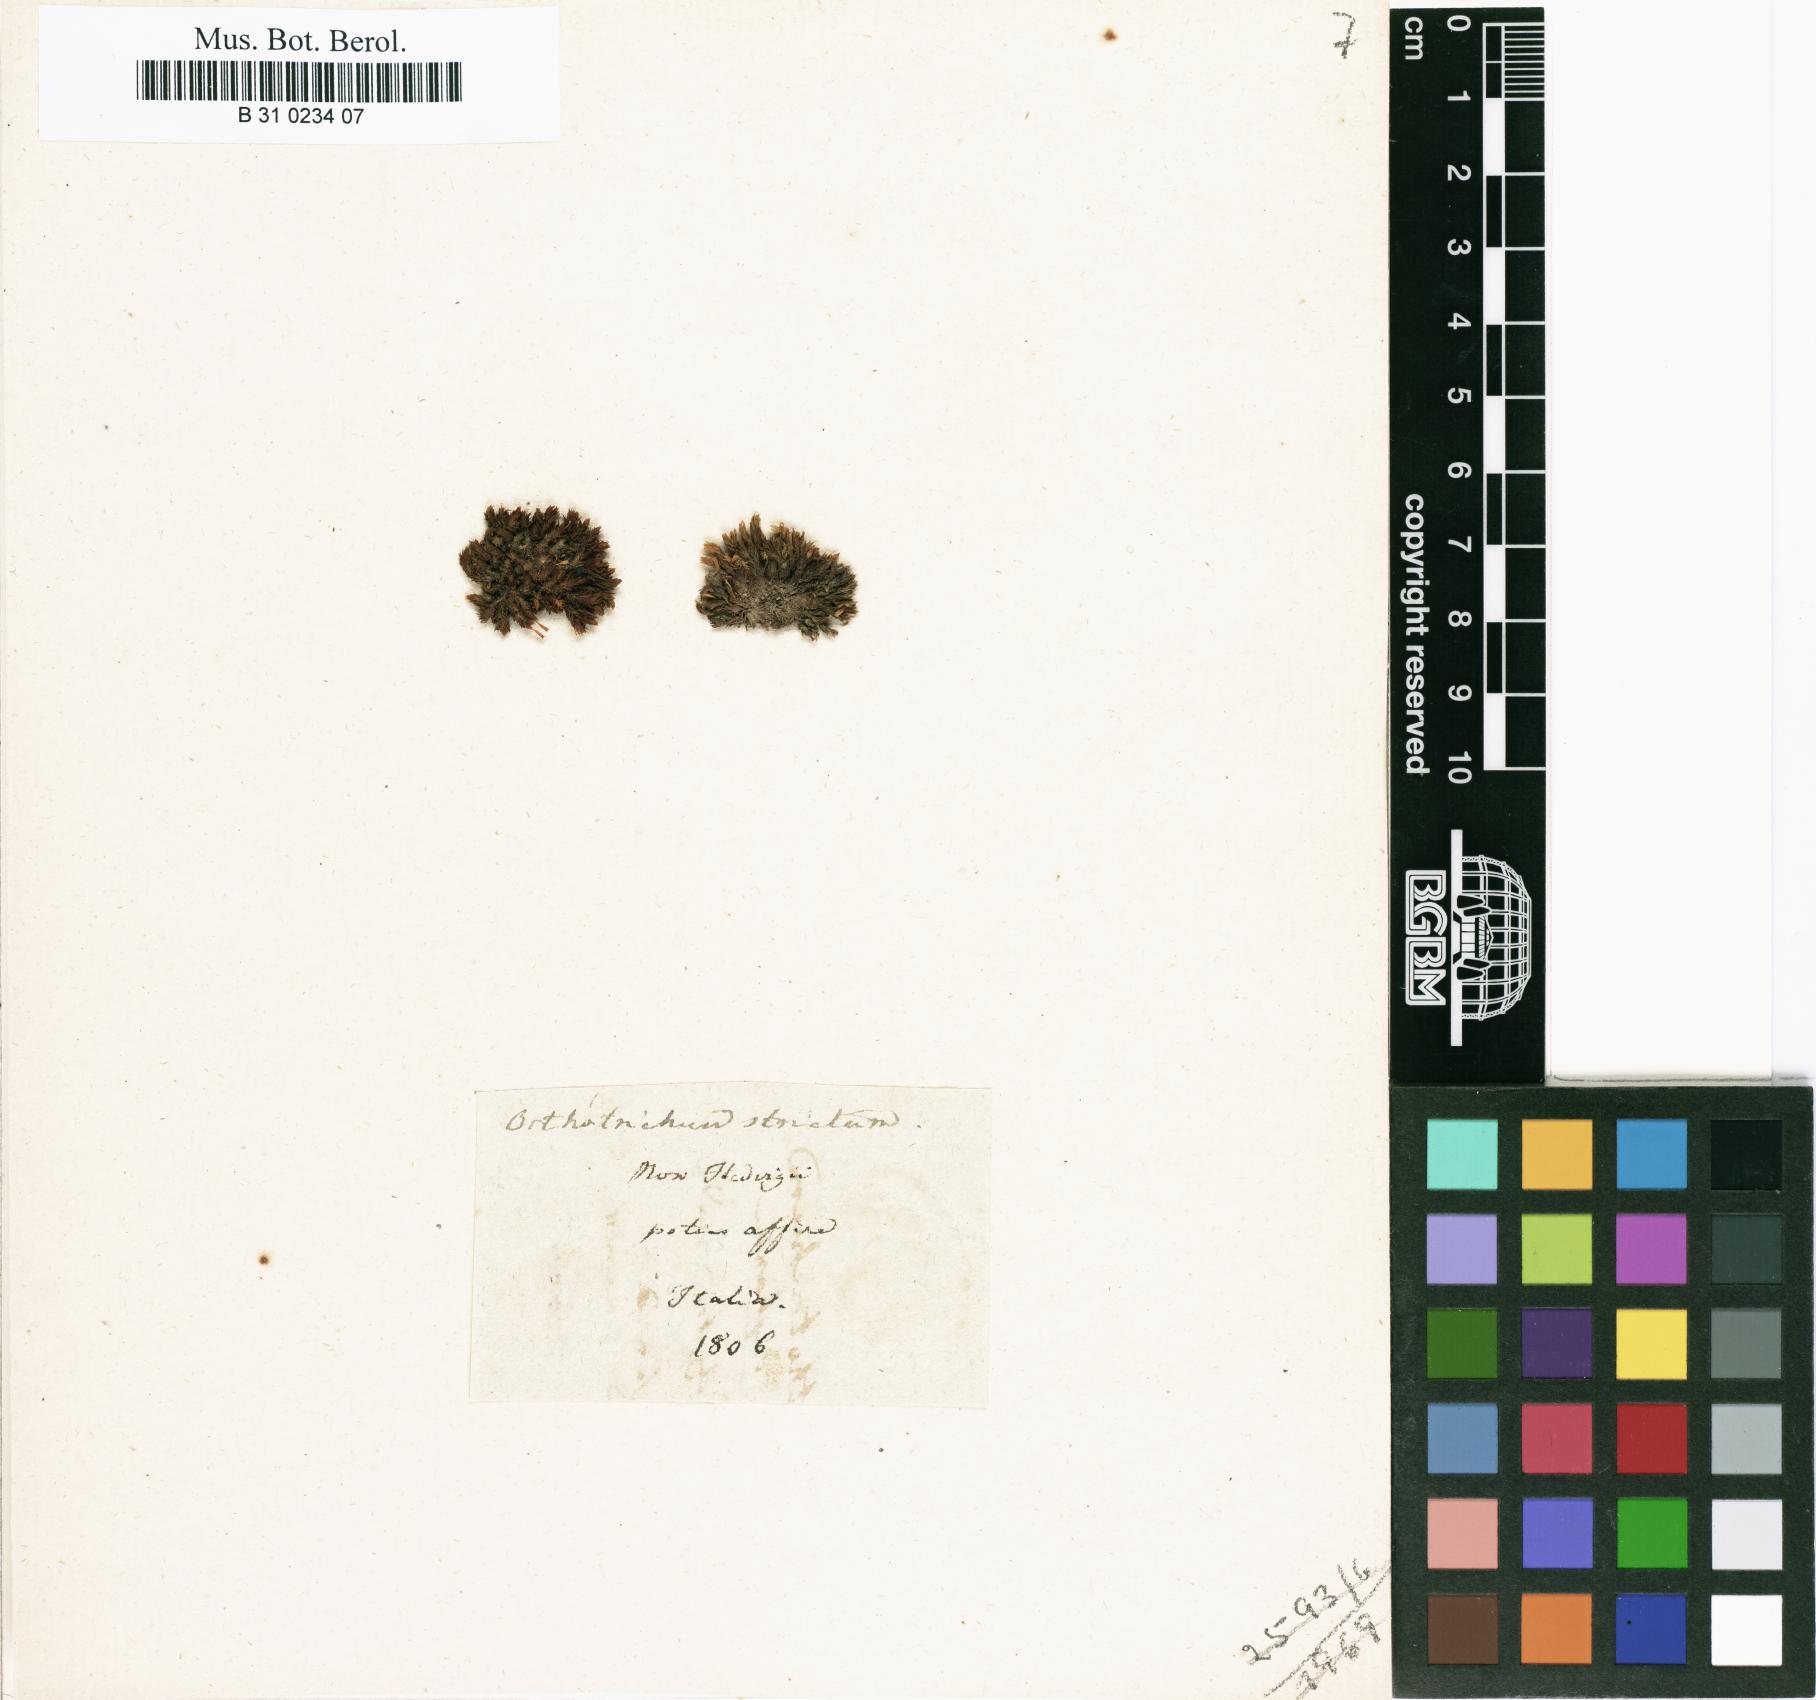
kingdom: Plantae
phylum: Bryophyta
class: Bryopsida
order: Orthotrichales
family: Orthotrichaceae
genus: Lewinskya
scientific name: Lewinskya striata
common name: Shaw's bristle-moss
